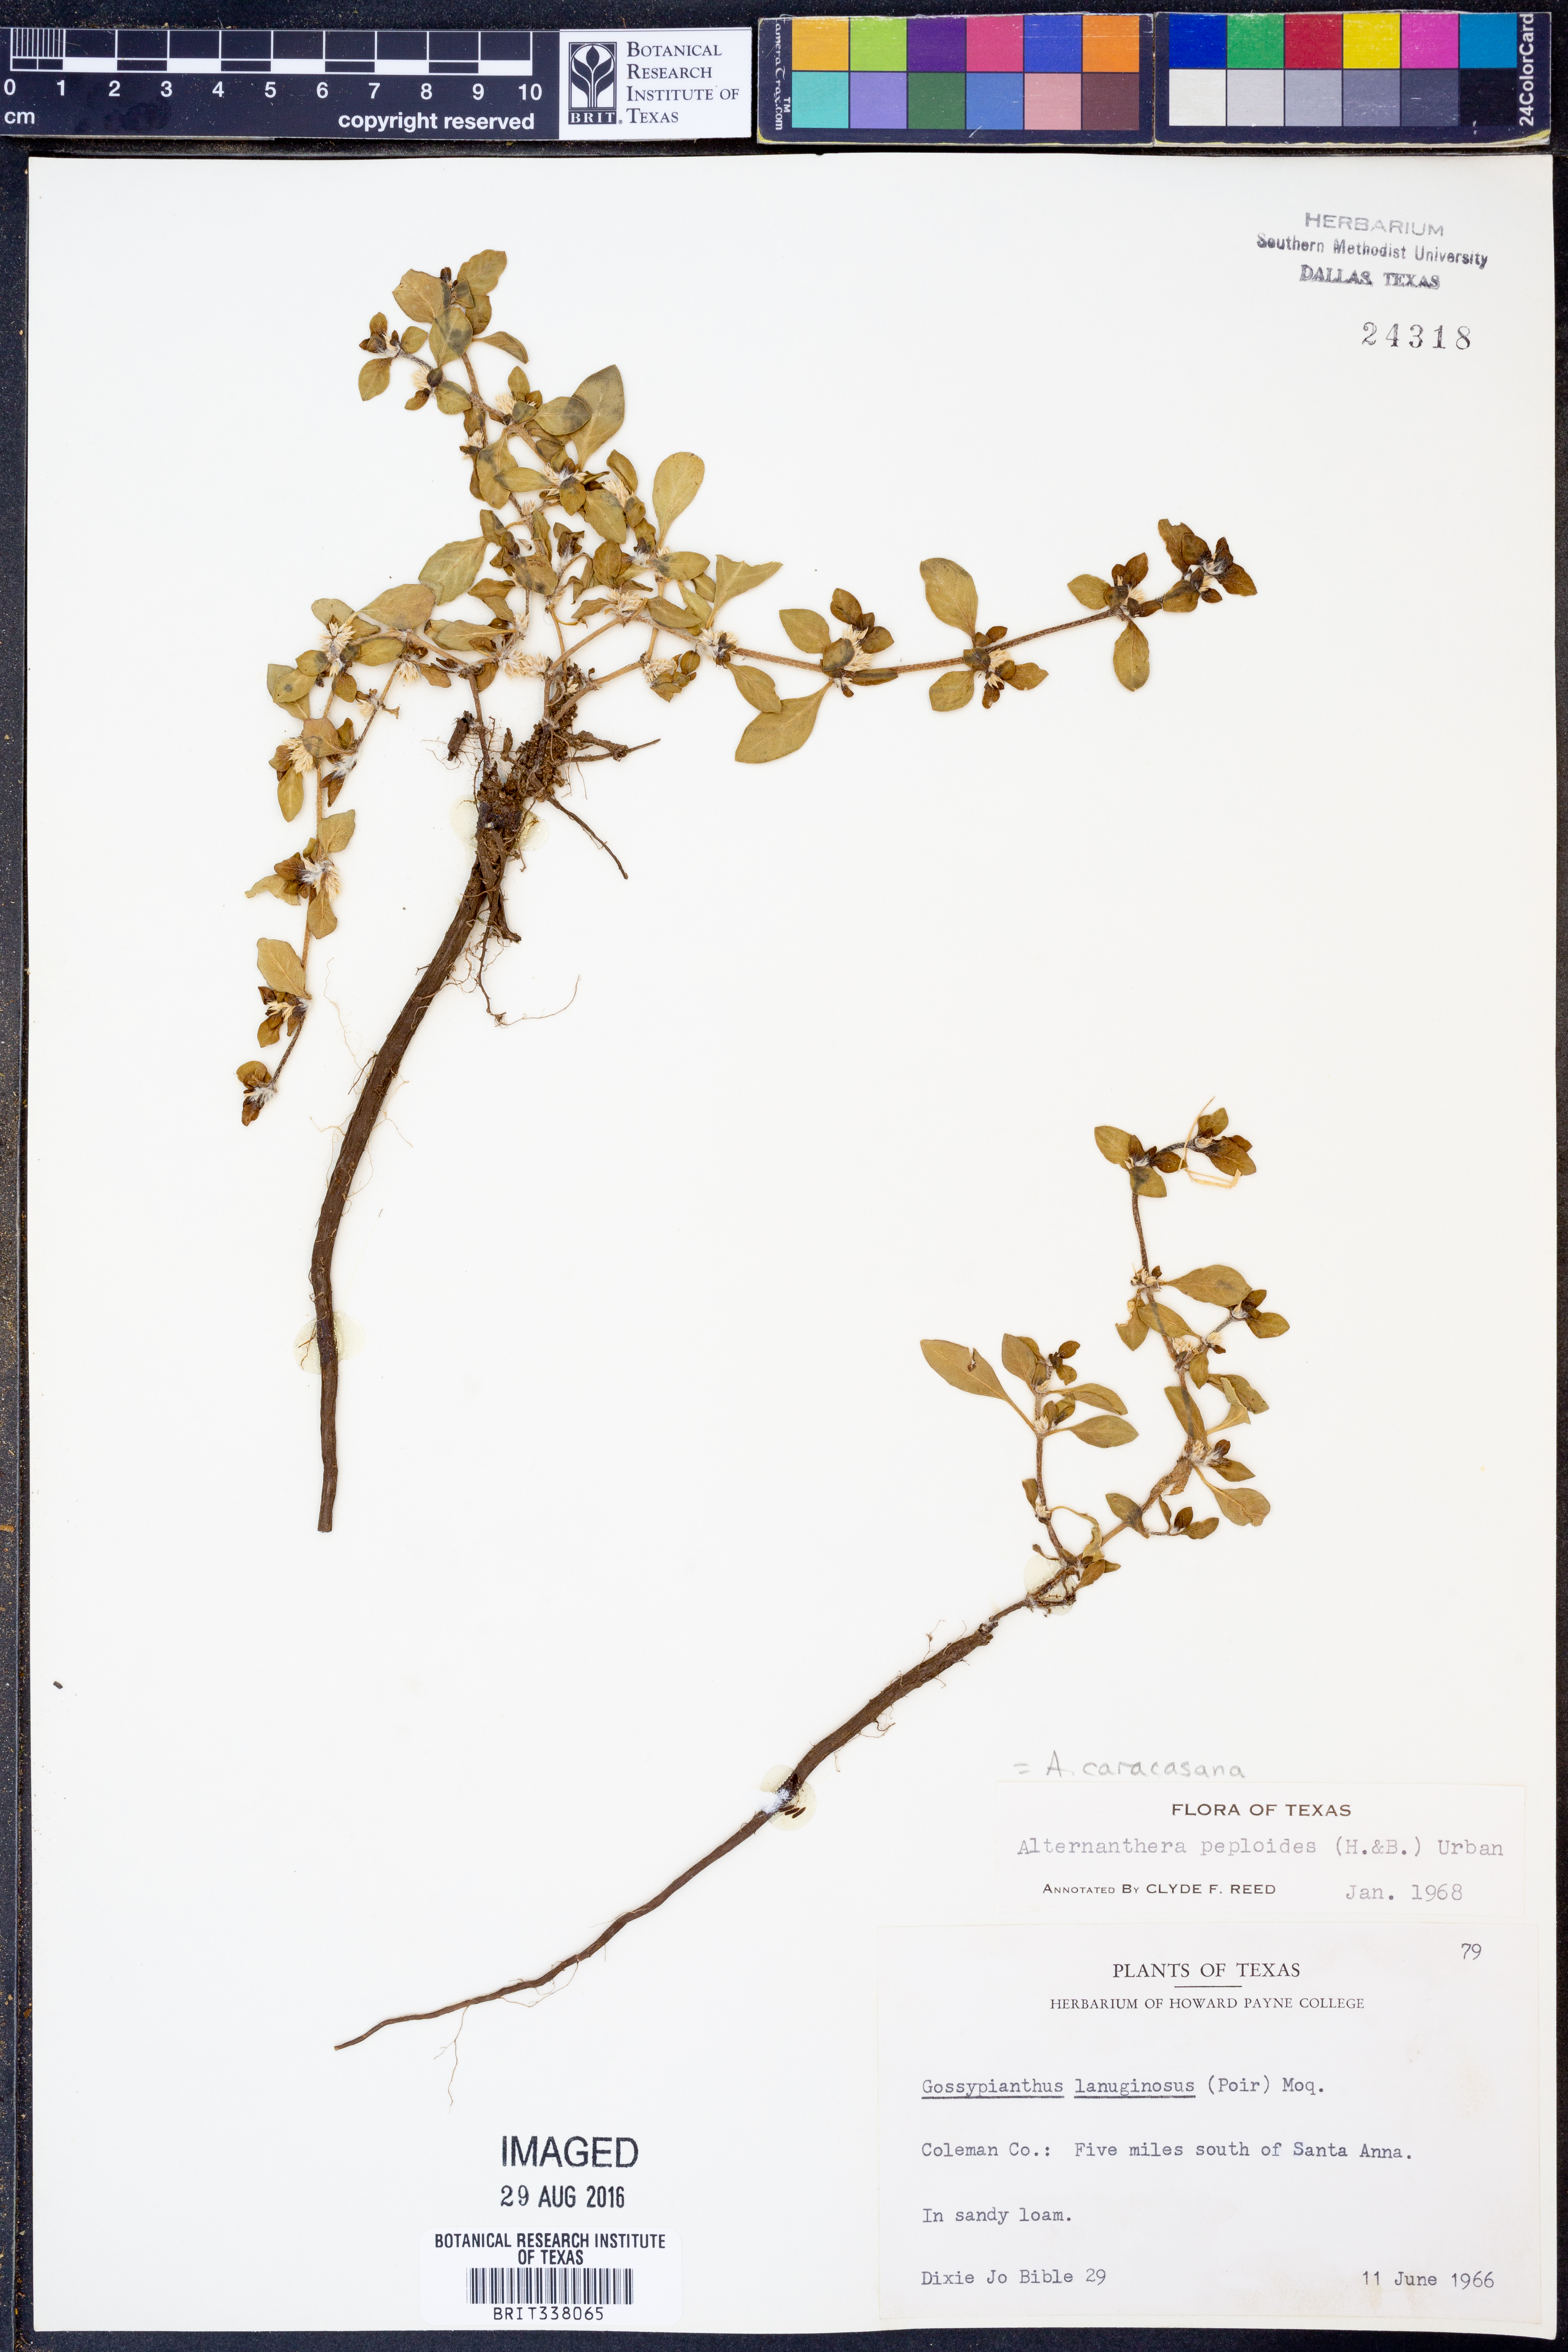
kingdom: Plantae
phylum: Tracheophyta
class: Magnoliopsida
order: Caryophyllales
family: Amaranthaceae
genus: Alternanthera
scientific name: Alternanthera caracasana
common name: Washerwoman
